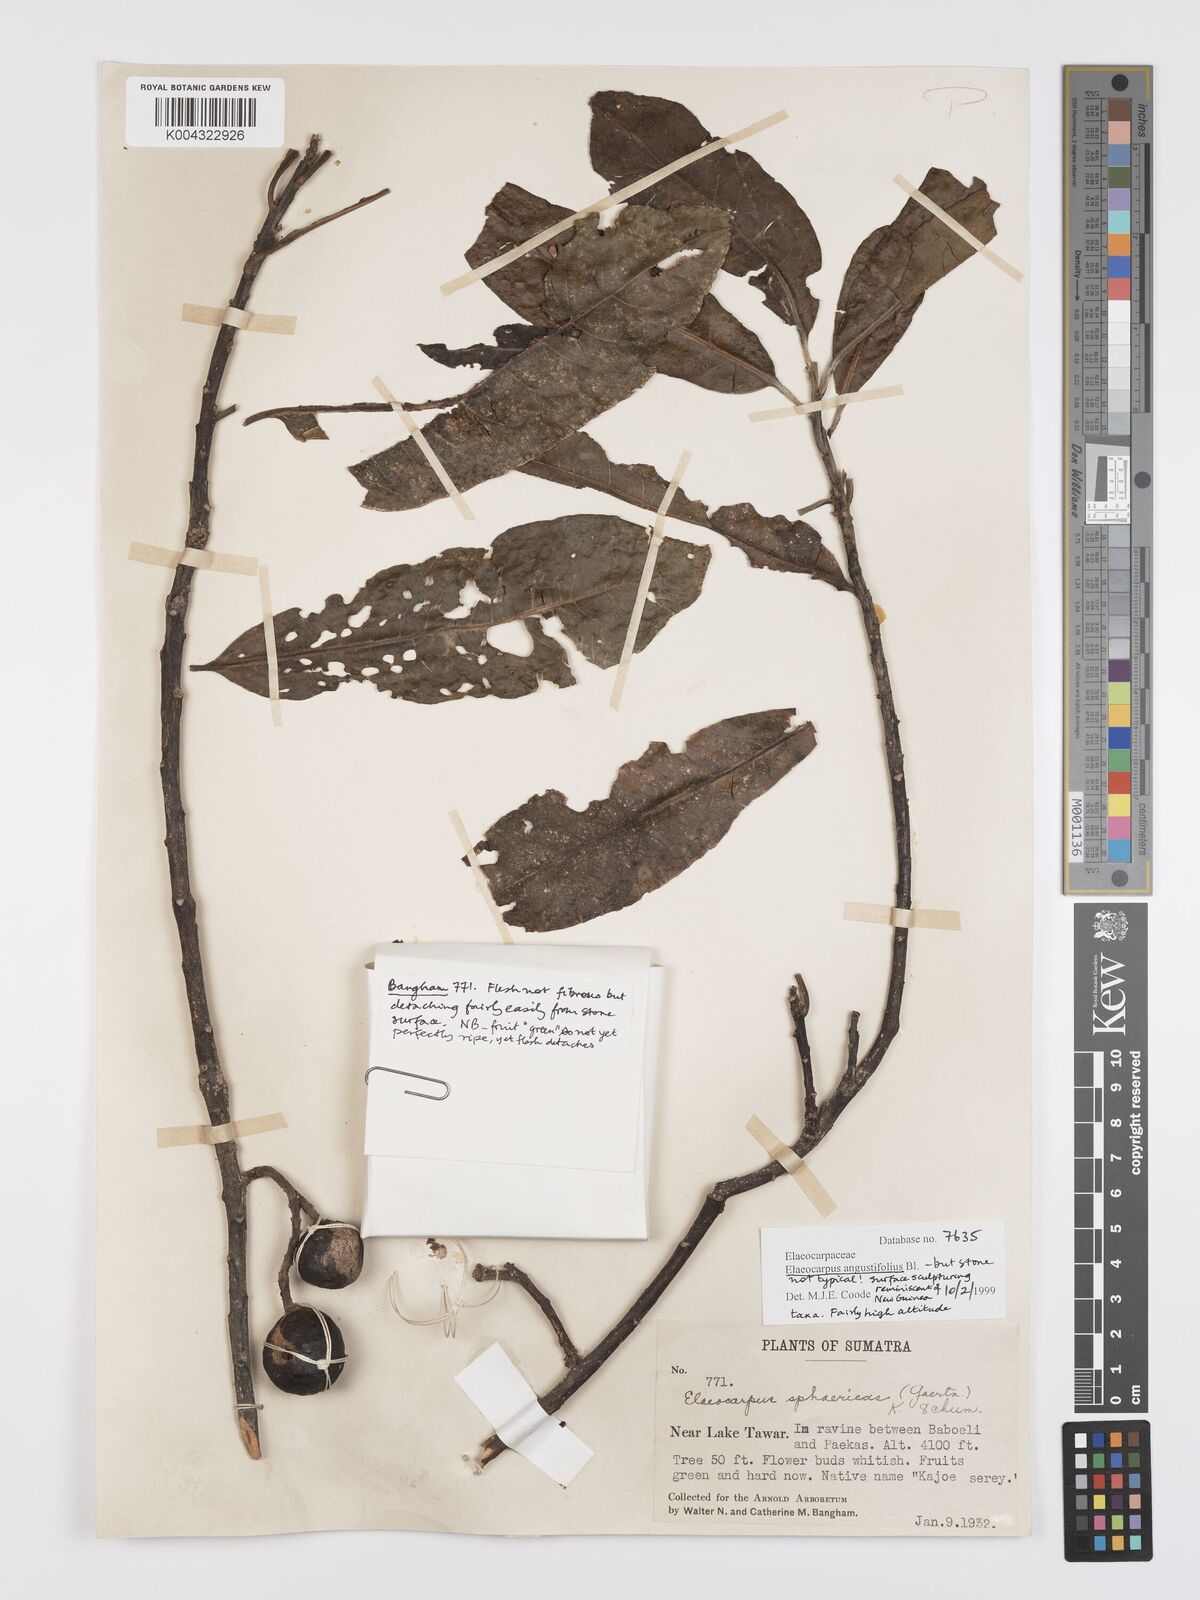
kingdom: Plantae
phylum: Tracheophyta
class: Magnoliopsida
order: Oxalidales
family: Elaeocarpaceae
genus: Elaeocarpus
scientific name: Elaeocarpus
